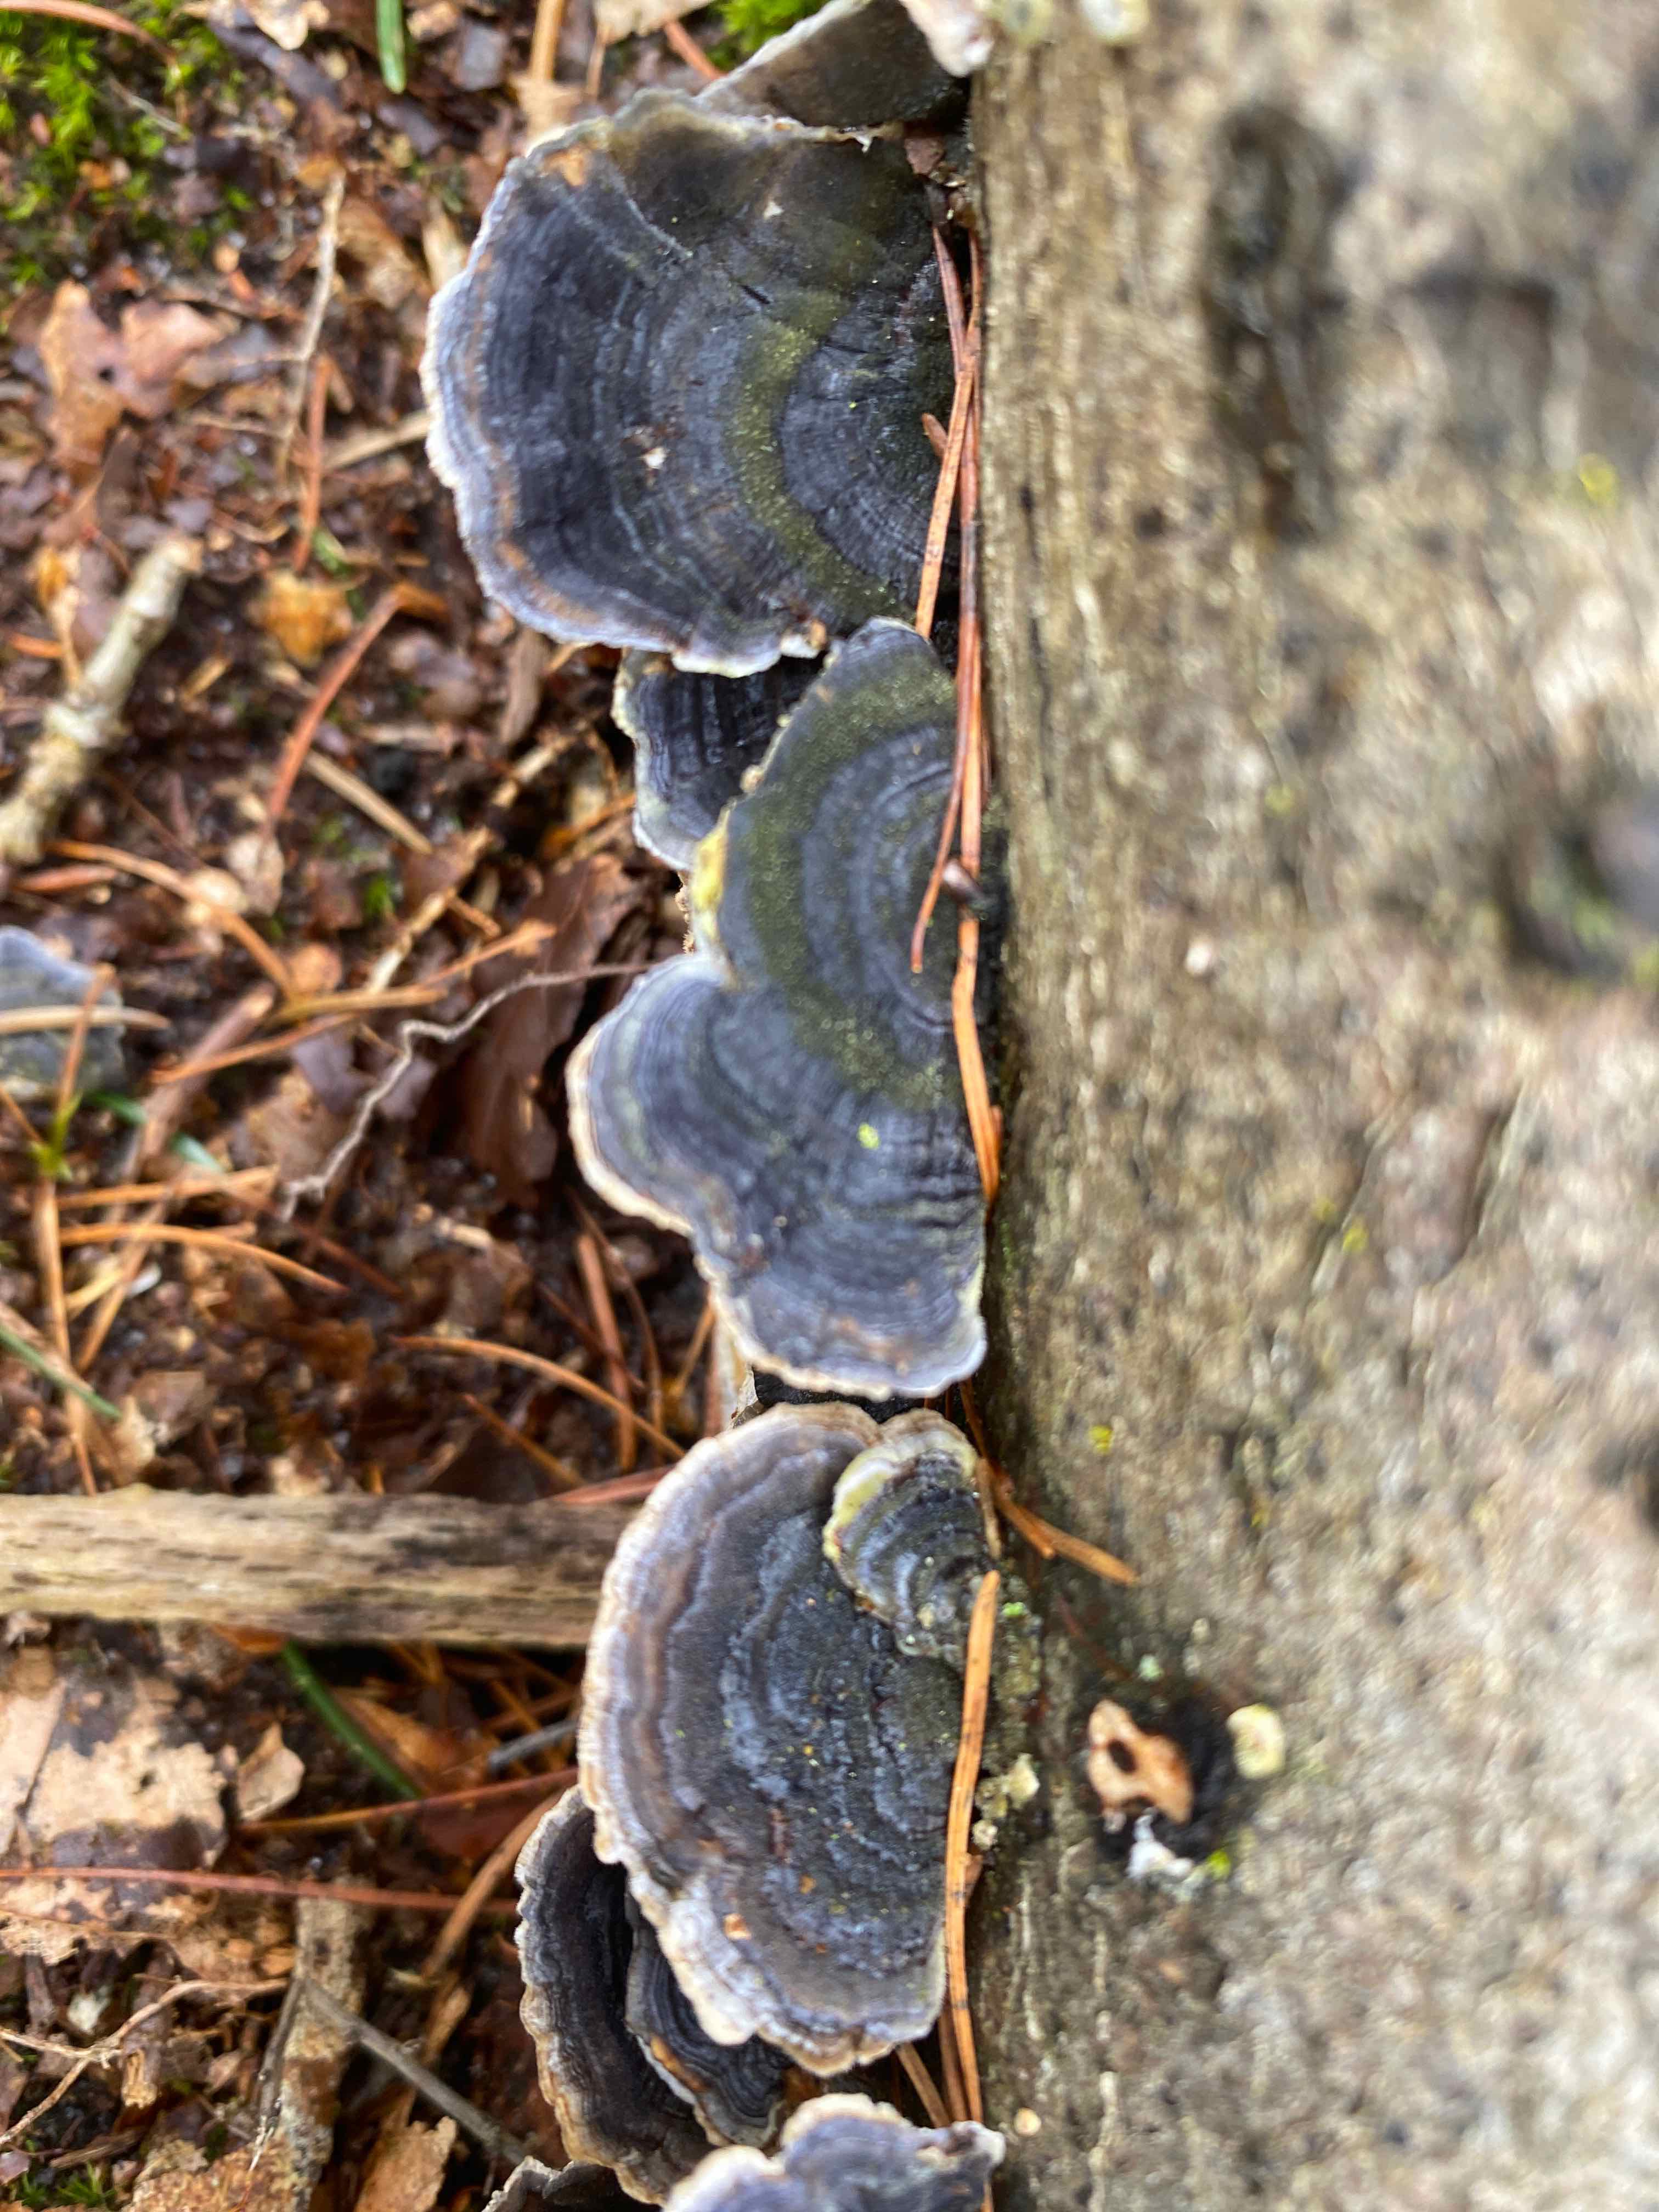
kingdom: Fungi
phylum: Basidiomycota
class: Agaricomycetes
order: Polyporales
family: Polyporaceae
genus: Trametes
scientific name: Trametes versicolor
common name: broget læderporesvamp
